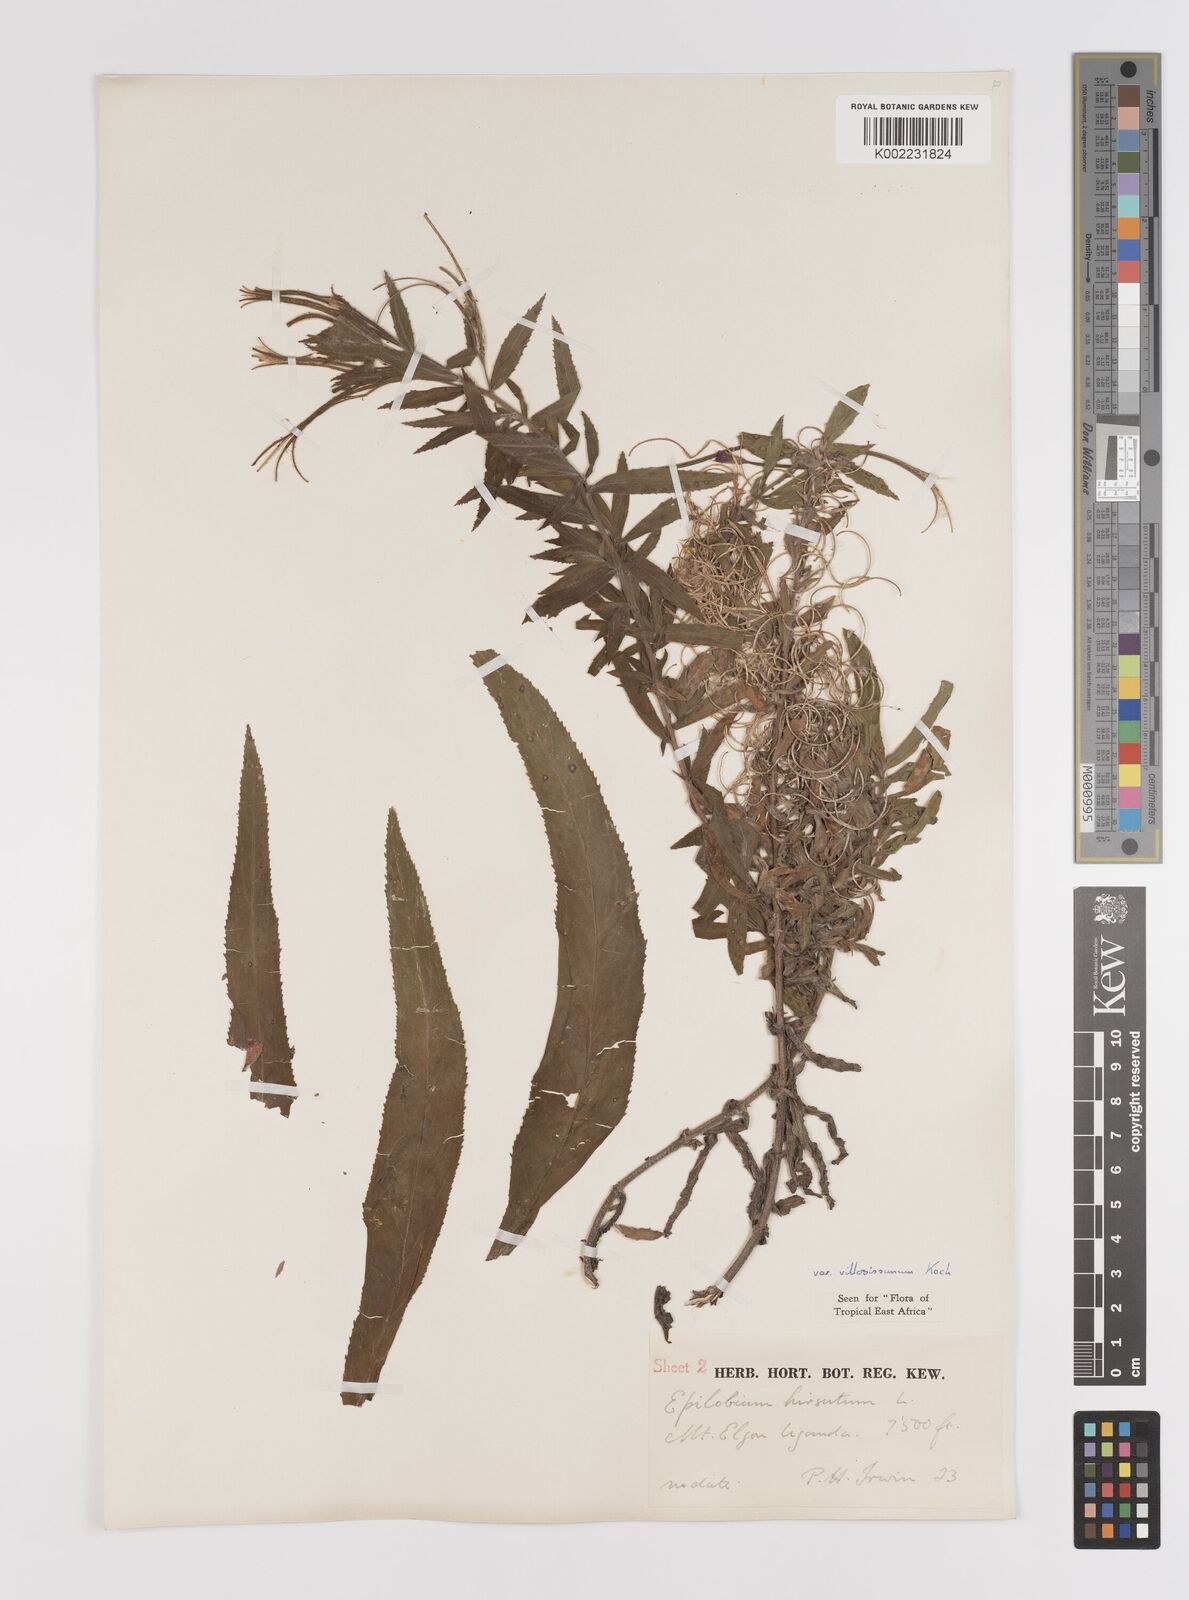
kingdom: Plantae
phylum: Tracheophyta
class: Magnoliopsida
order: Myrtales
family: Onagraceae
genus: Epilobium
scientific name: Epilobium hirsutum
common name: Great willowherb
